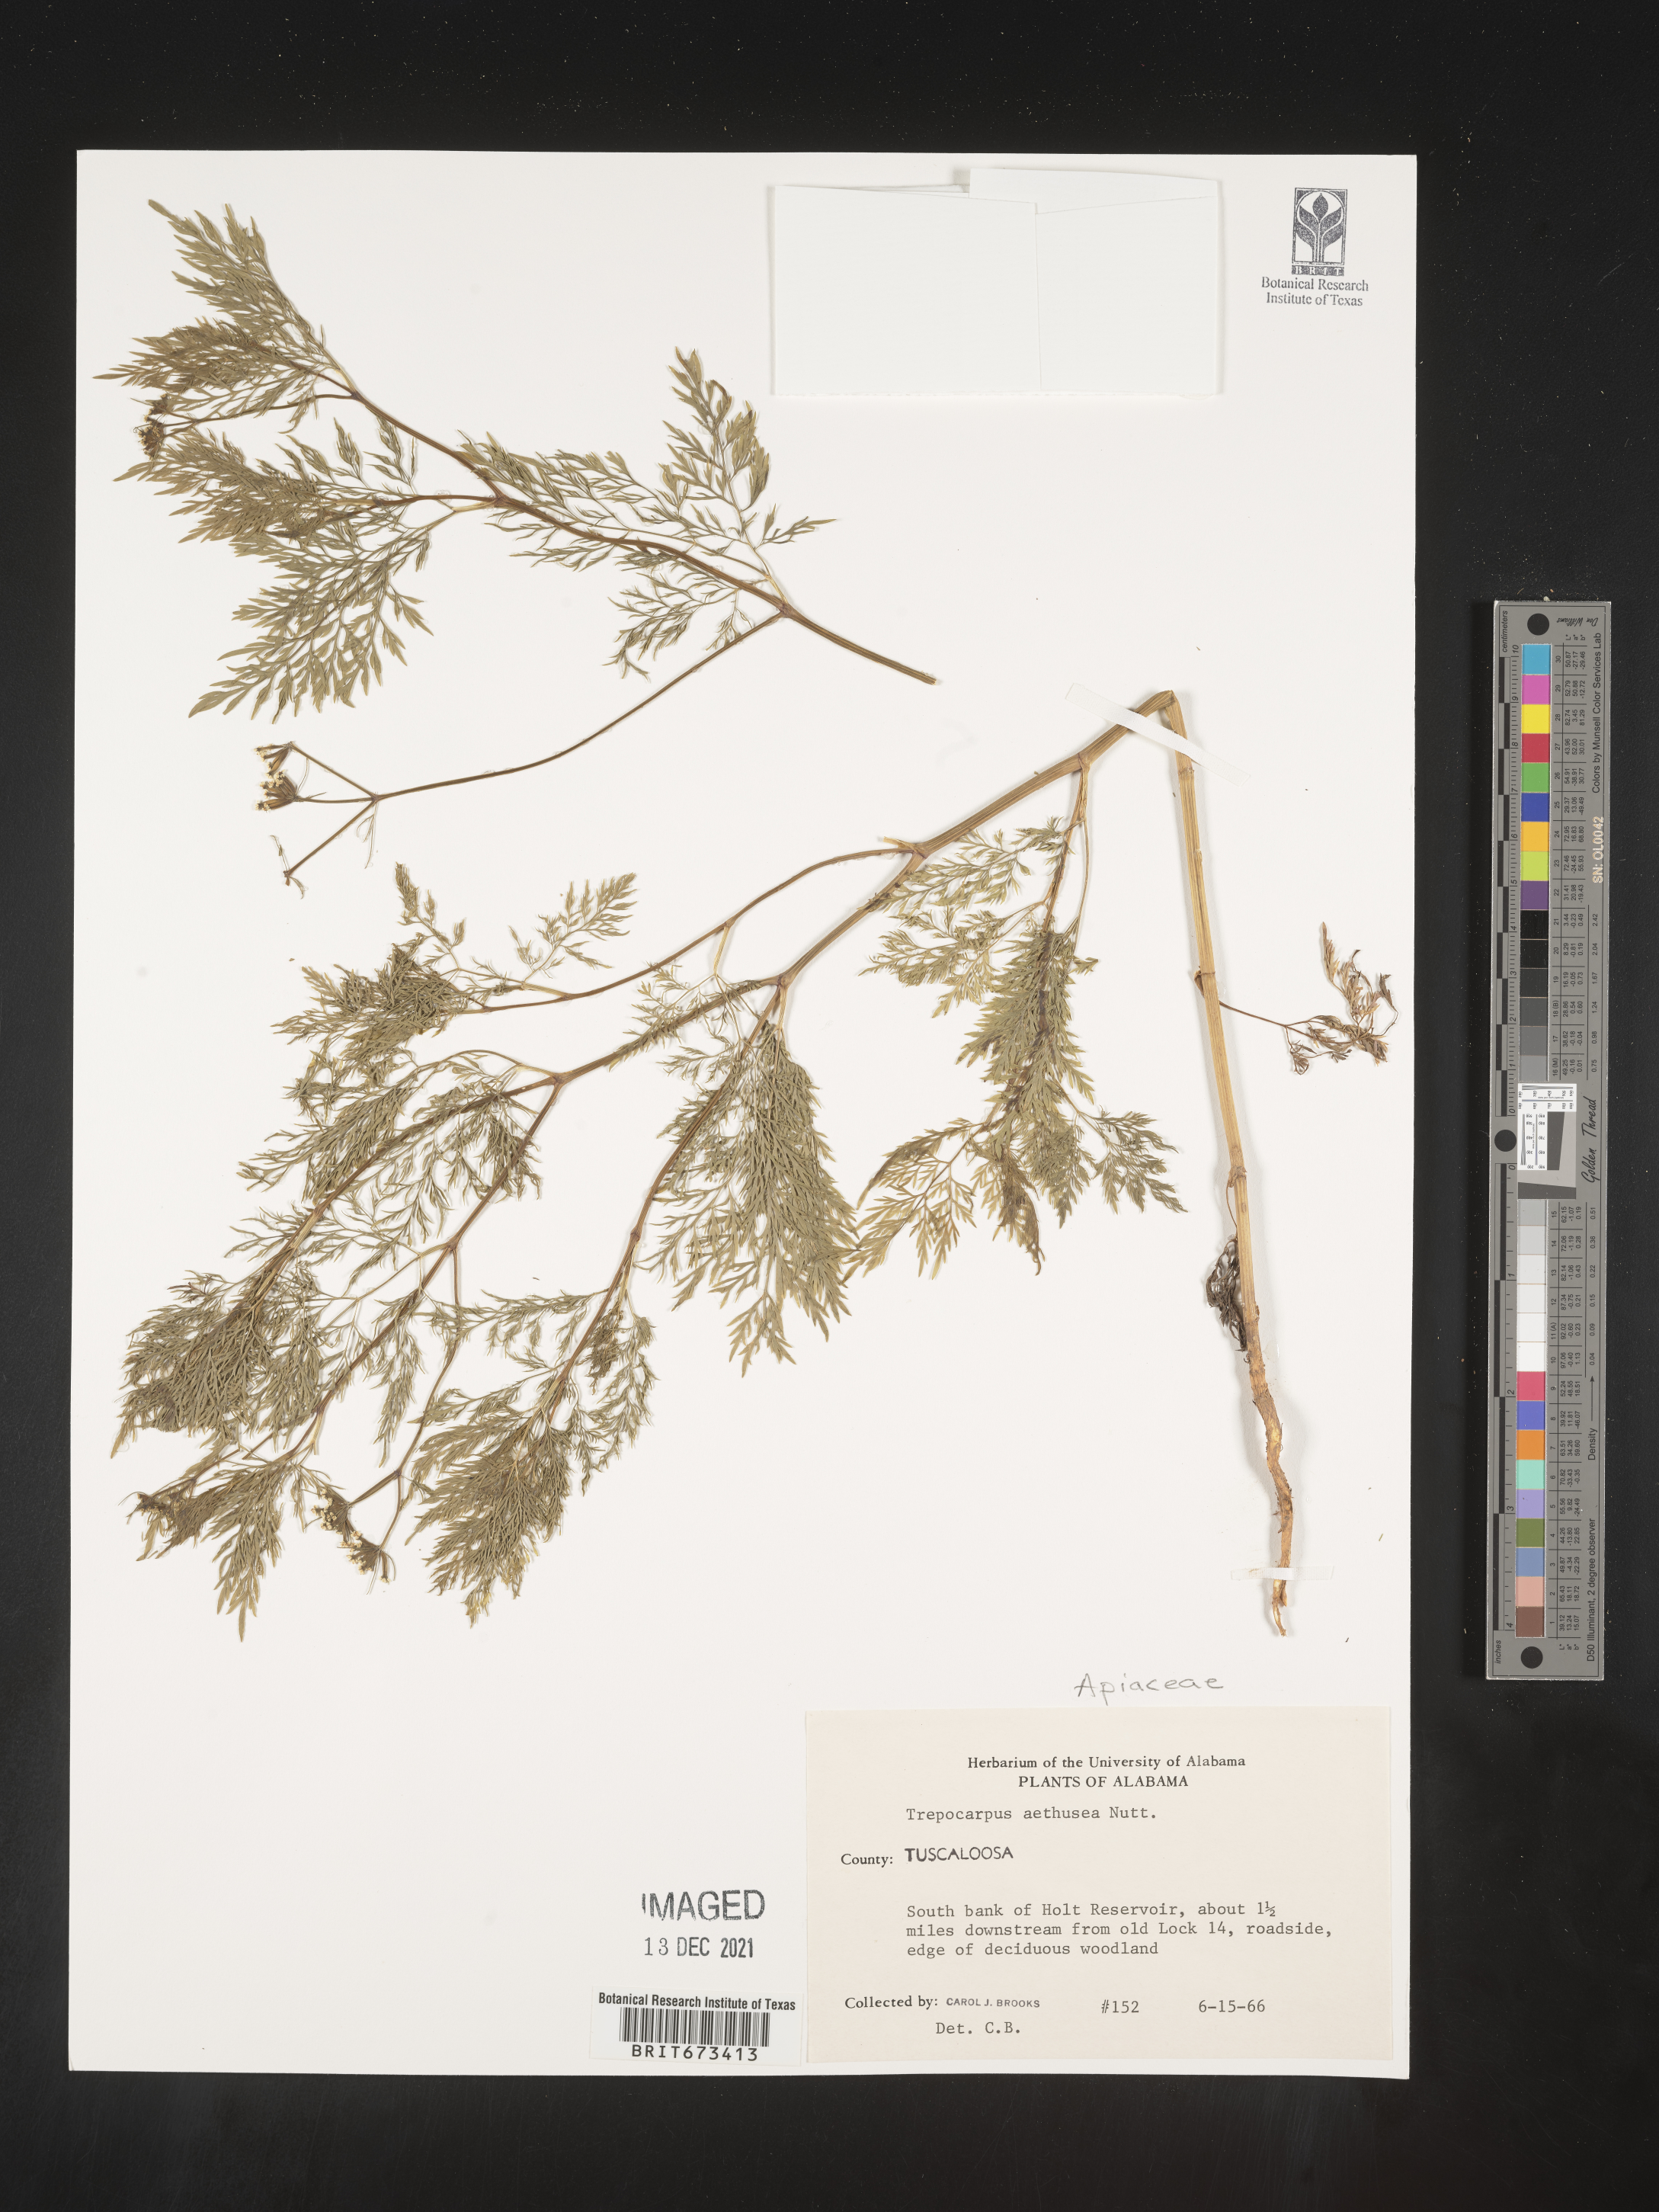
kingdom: Plantae
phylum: Tracheophyta
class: Magnoliopsida
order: Apiales
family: Apiaceae
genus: Trepocarpus
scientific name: Trepocarpus aethusae
